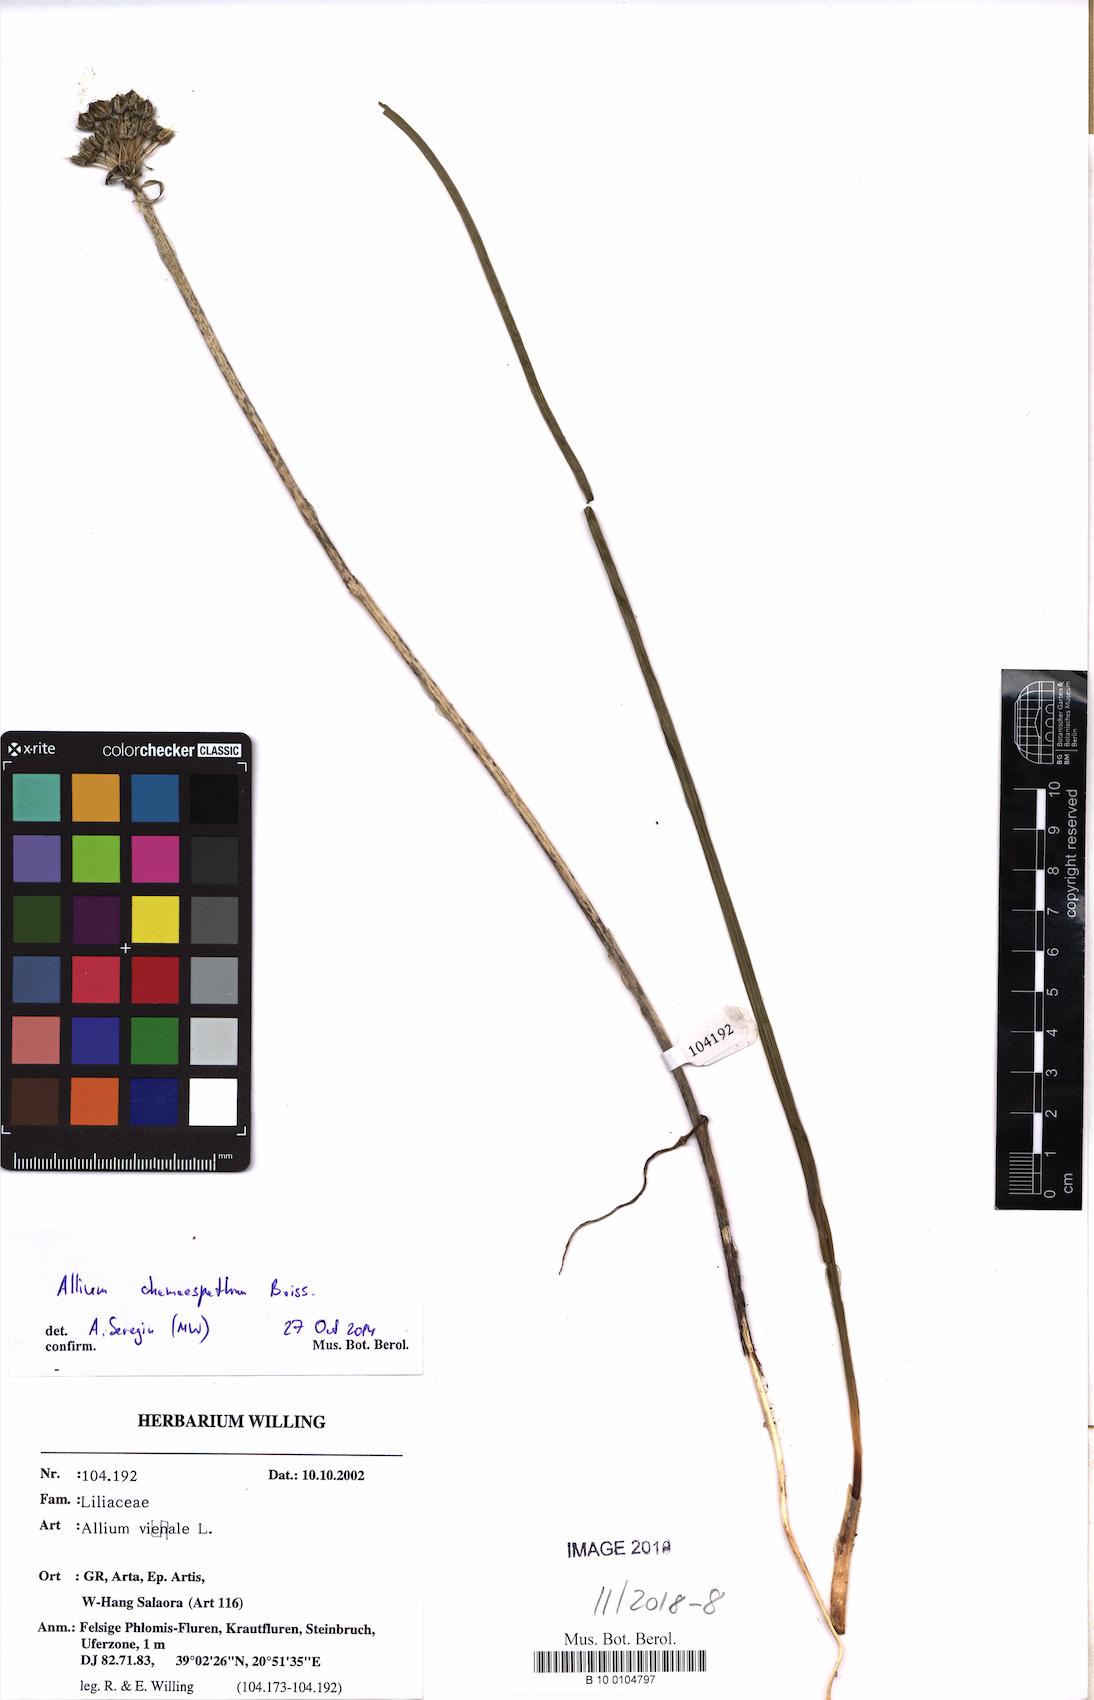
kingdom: Plantae
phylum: Tracheophyta
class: Liliopsida
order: Asparagales
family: Amaryllidaceae
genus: Allium
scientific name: Allium chamaespathum
